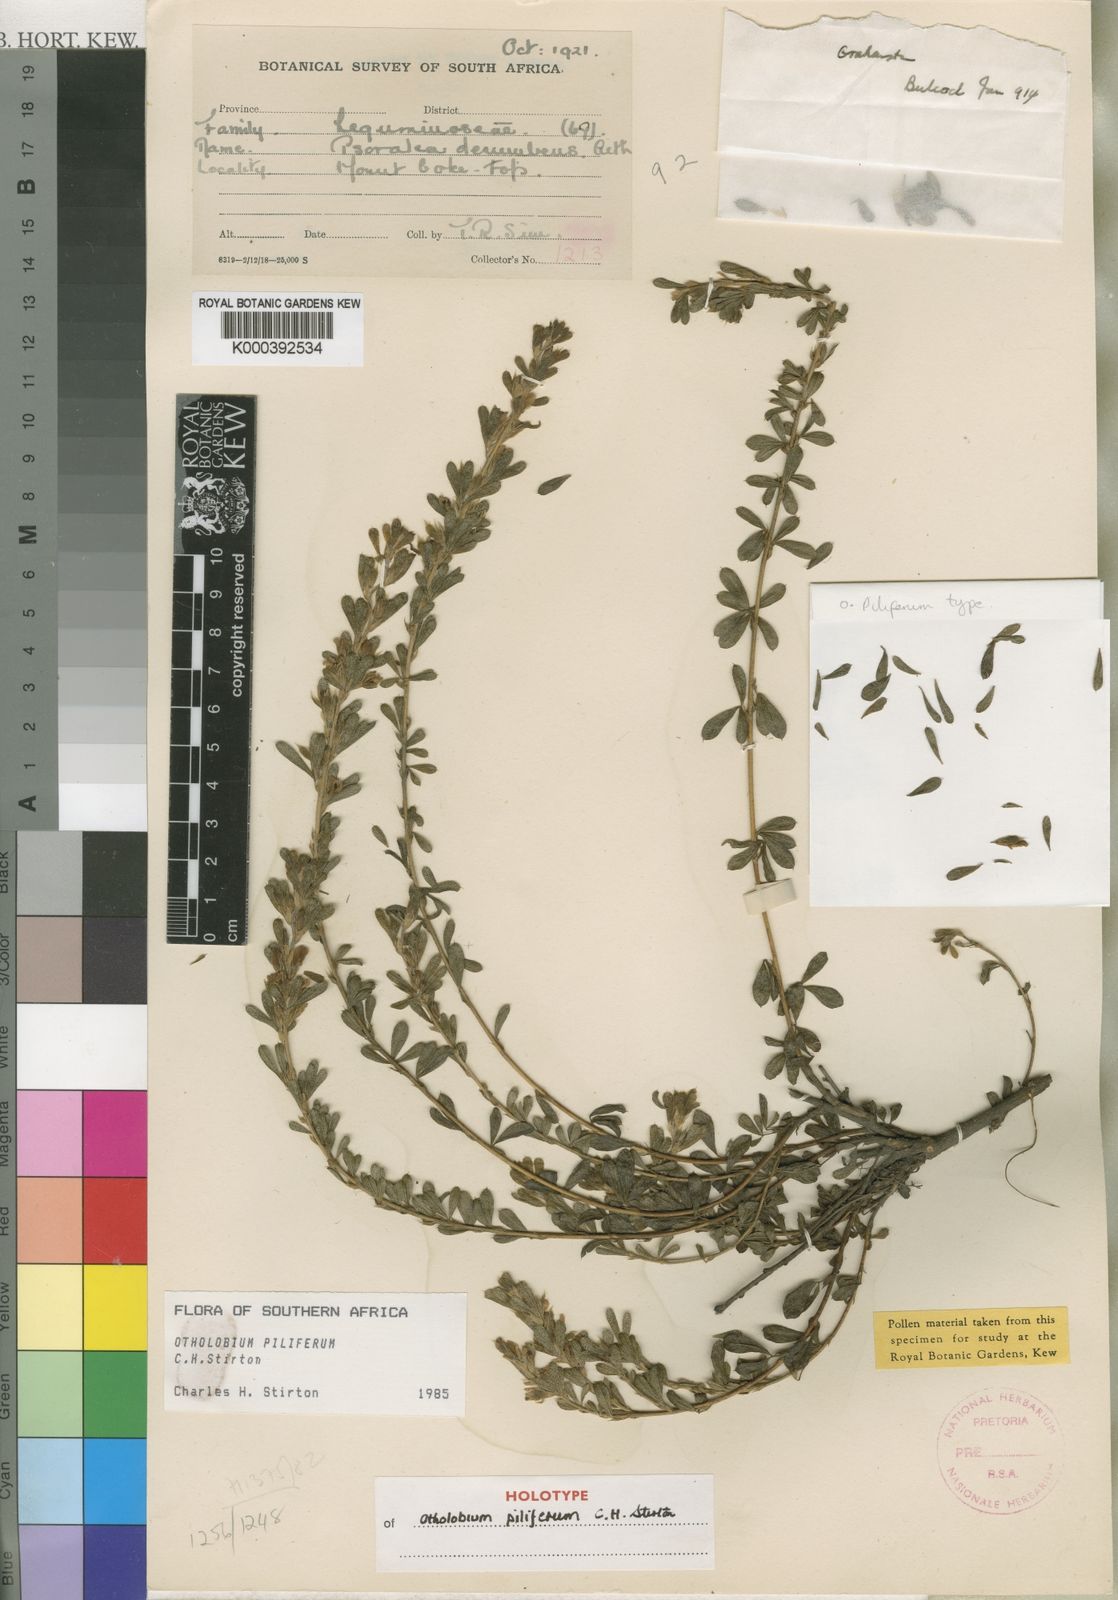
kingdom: Plantae
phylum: Tracheophyta
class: Magnoliopsida
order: Fabales
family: Fabaceae
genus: Psoralea
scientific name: Psoralea pilifera
